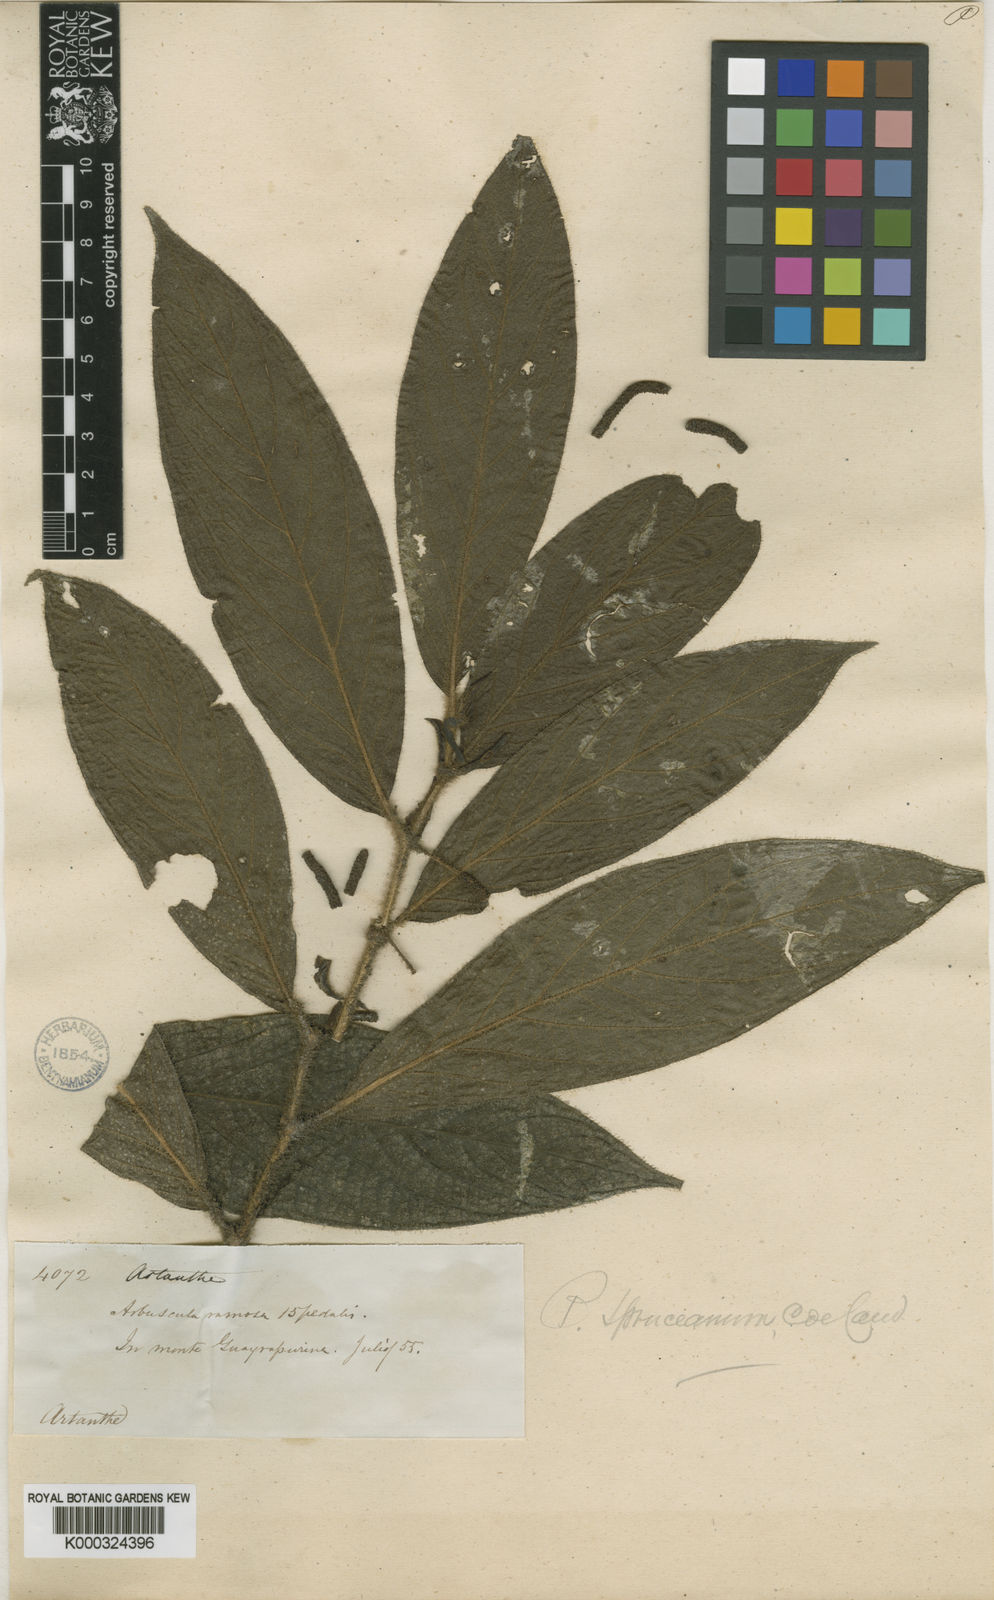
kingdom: Plantae
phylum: Tracheophyta
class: Magnoliopsida
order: Piperales
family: Piperaceae
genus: Piper
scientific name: Piper spruceanum
